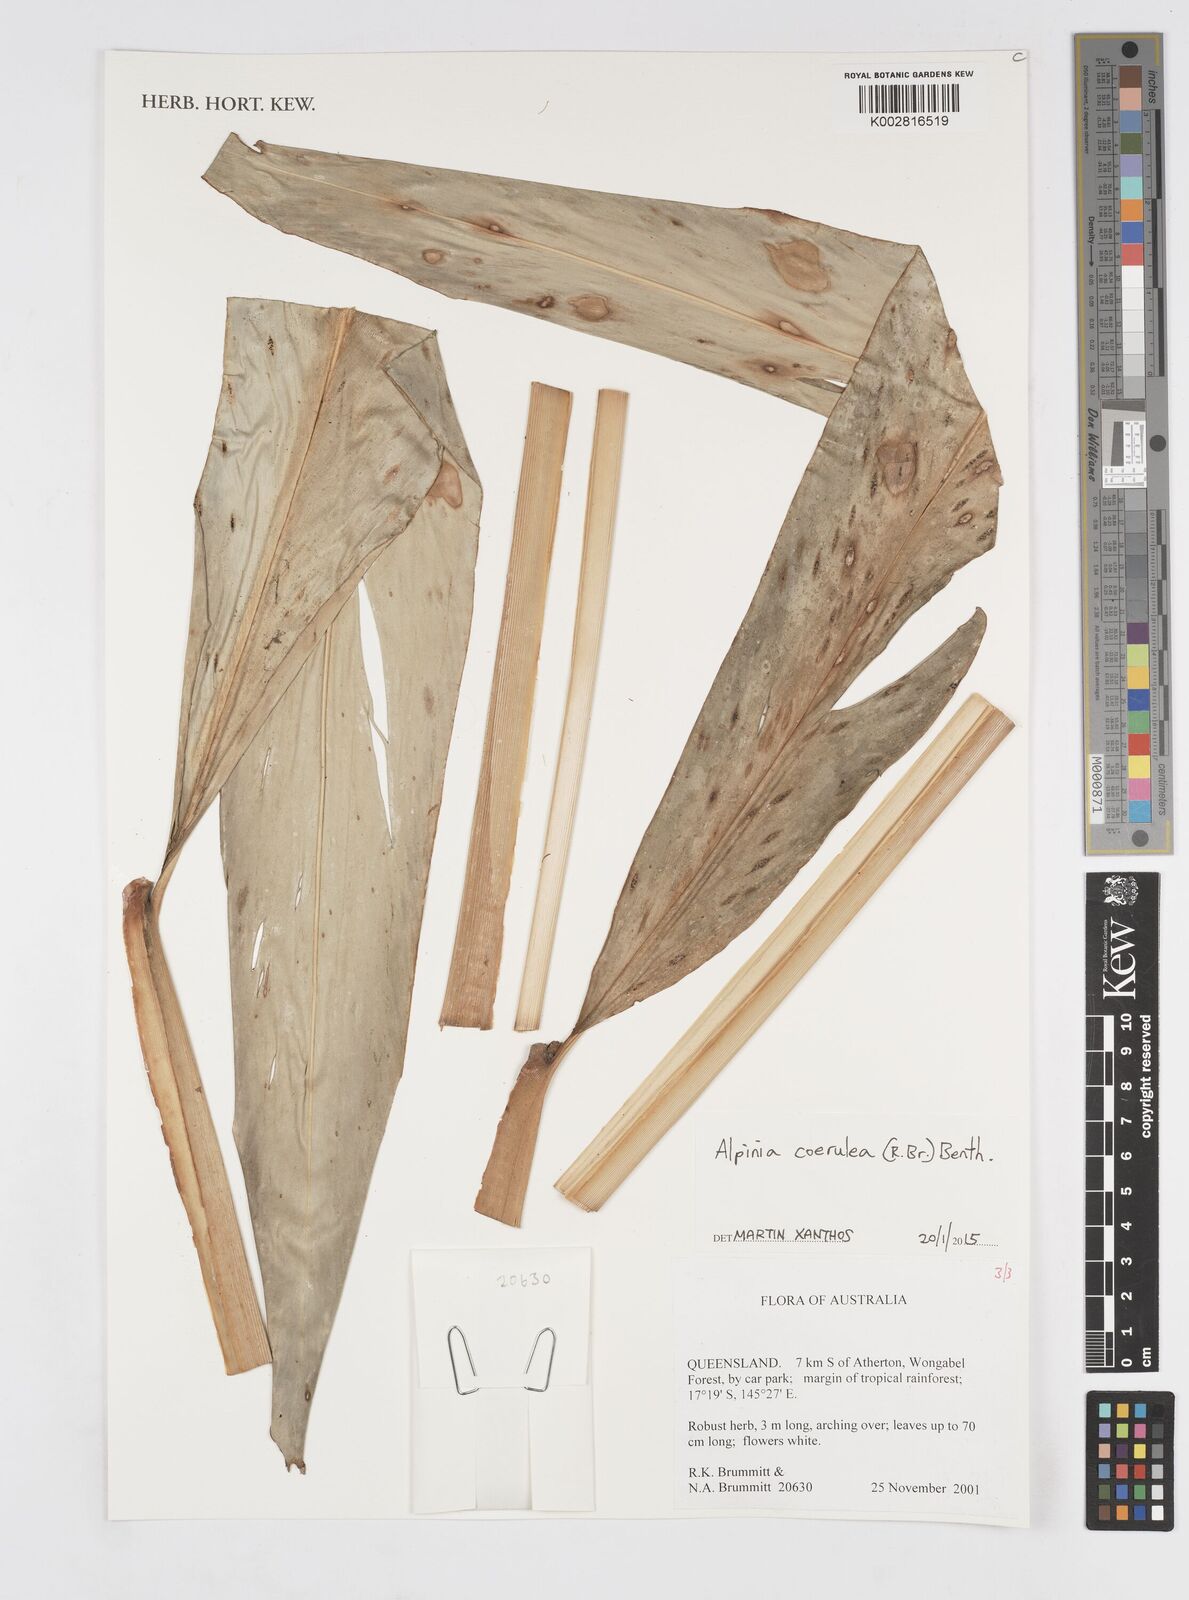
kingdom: Plantae
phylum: Tracheophyta
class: Liliopsida
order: Zingiberales
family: Zingiberaceae
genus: Alpinia
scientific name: Alpinia
